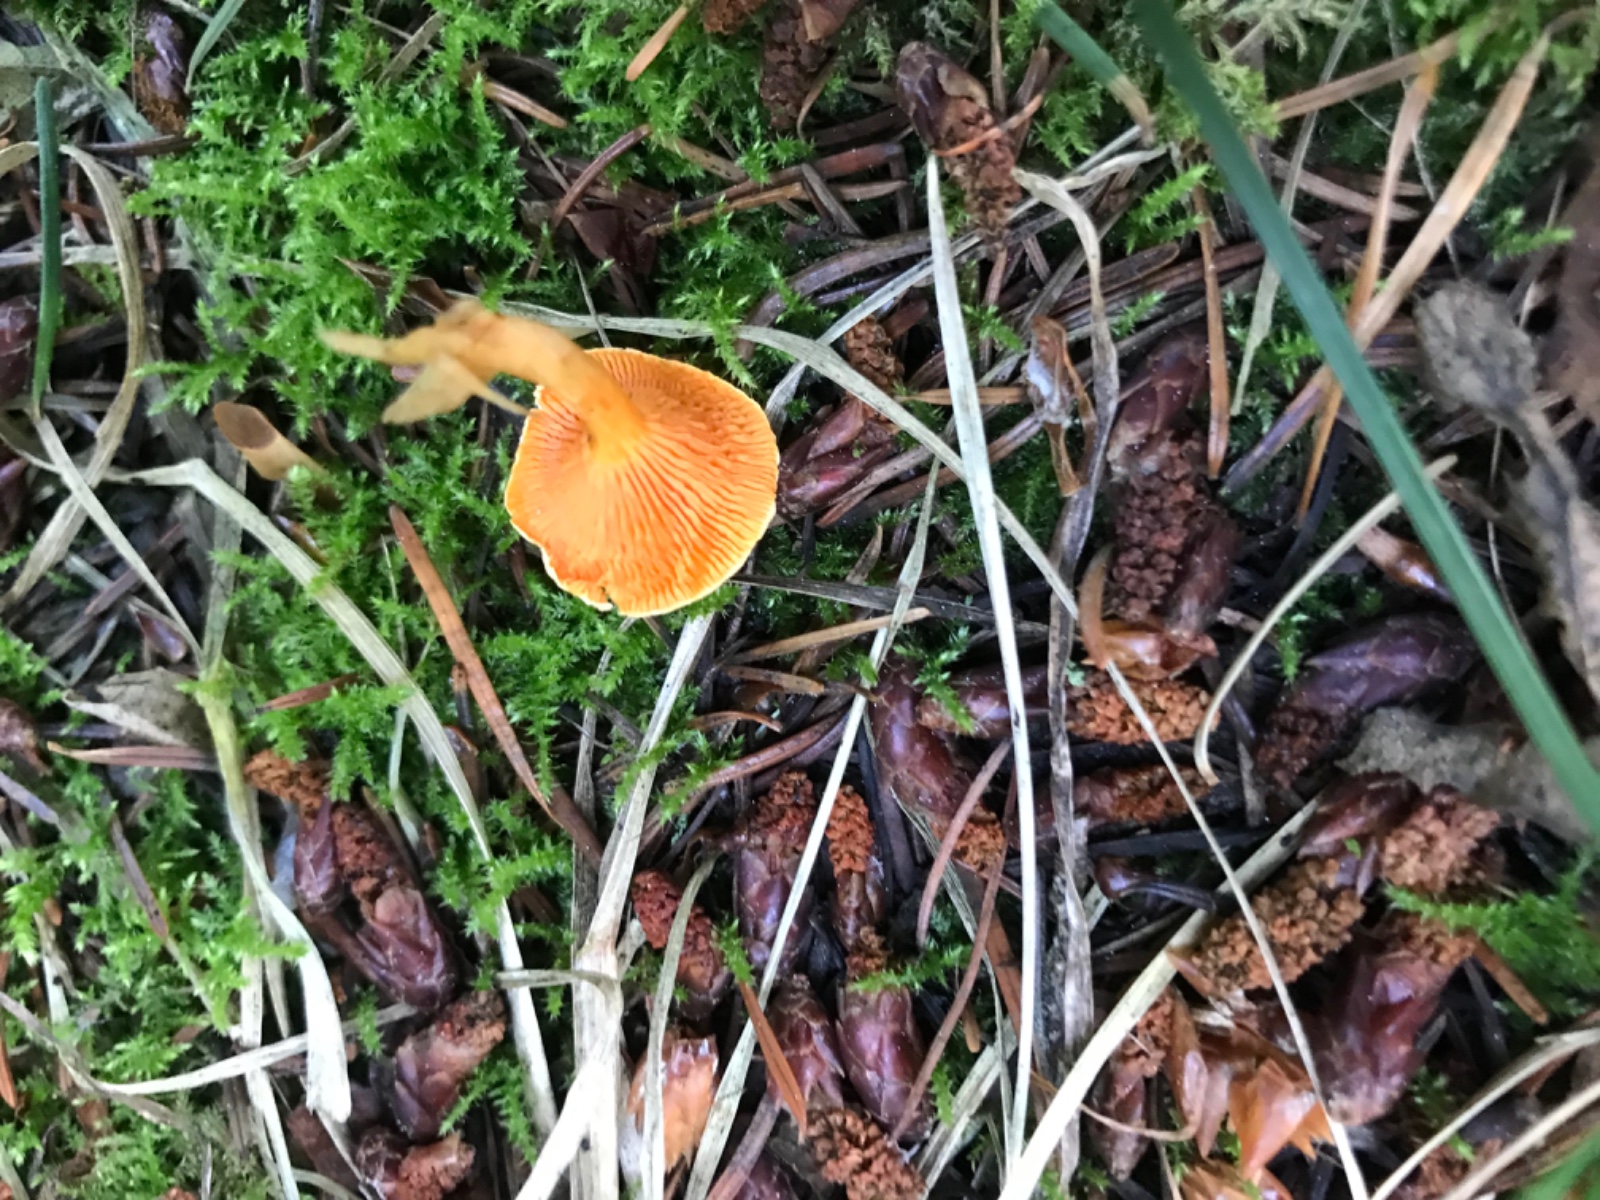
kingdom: Fungi
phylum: Basidiomycota
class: Agaricomycetes
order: Boletales
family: Hygrophoropsidaceae
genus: Hygrophoropsis
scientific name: Hygrophoropsis aurantiaca
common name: almindelig orangekantarel
